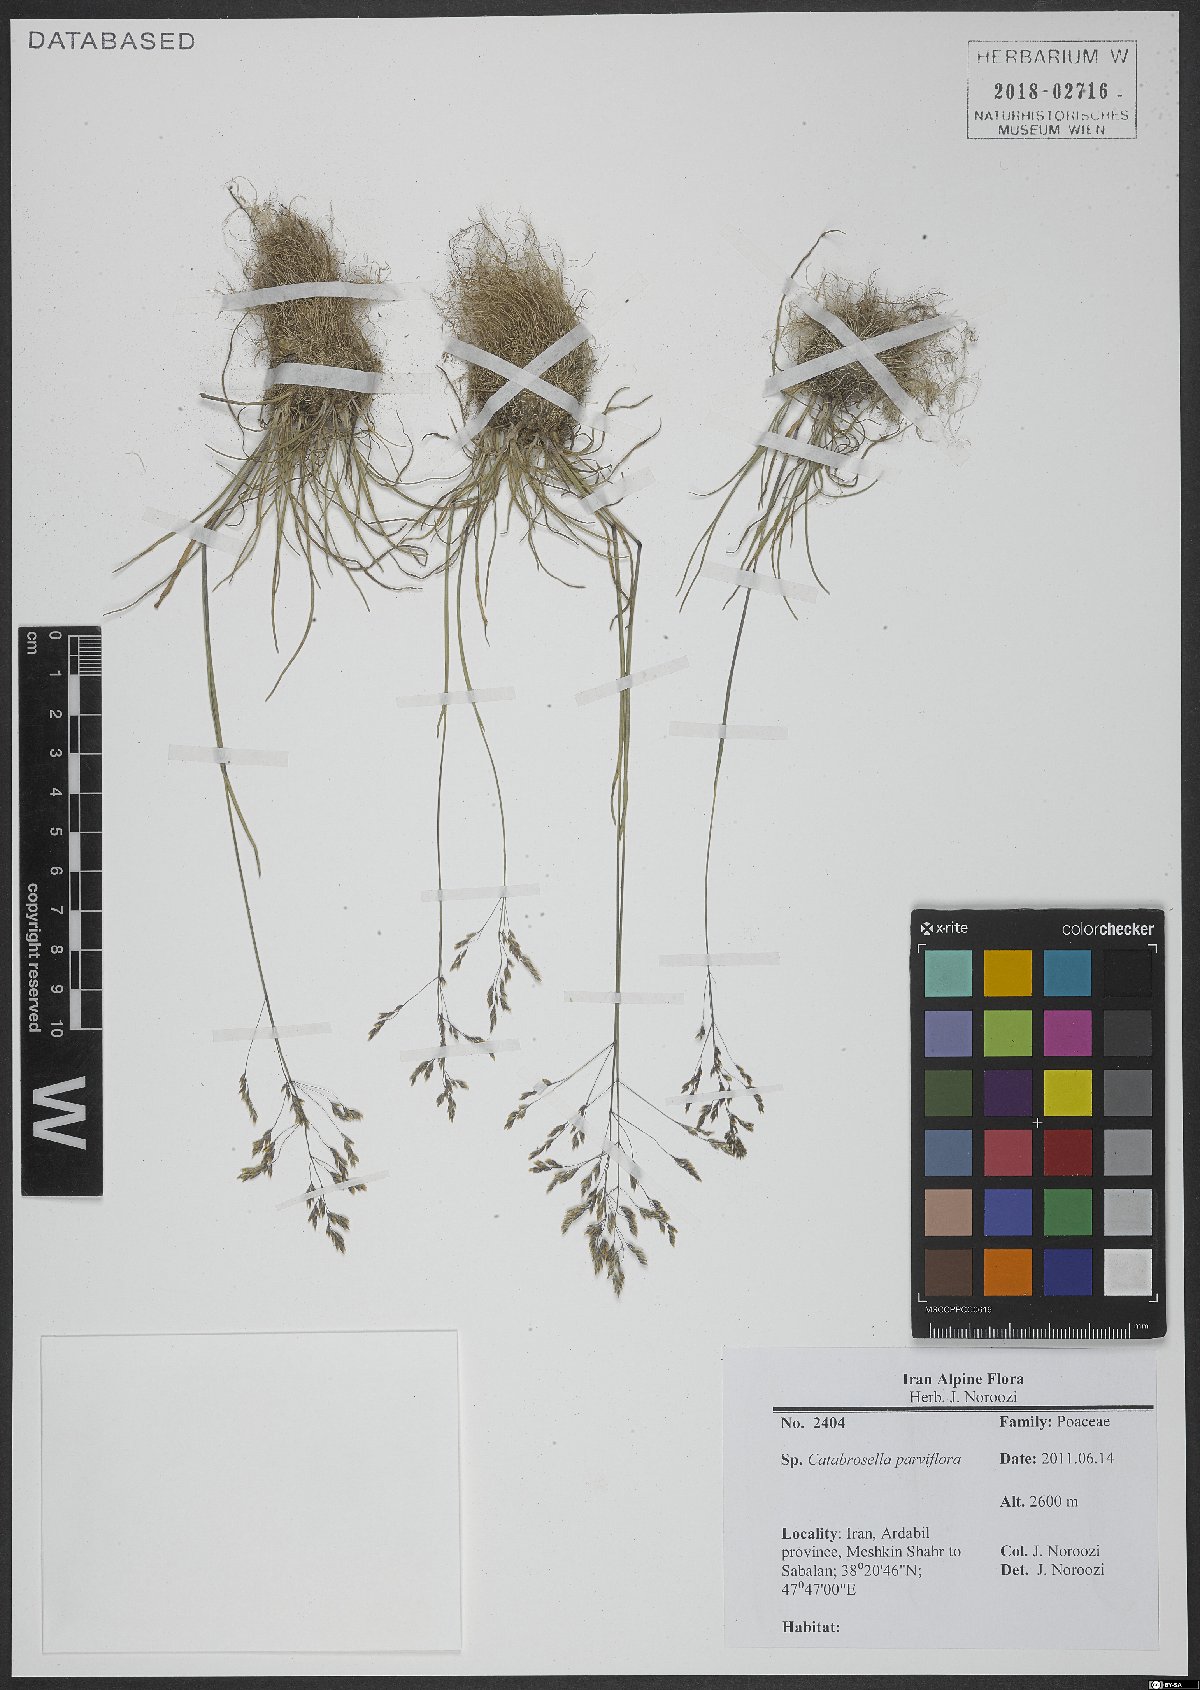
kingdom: Plantae
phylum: Tracheophyta
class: Liliopsida
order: Poales
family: Poaceae
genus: Catabrosella
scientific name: Catabrosella parviflora
